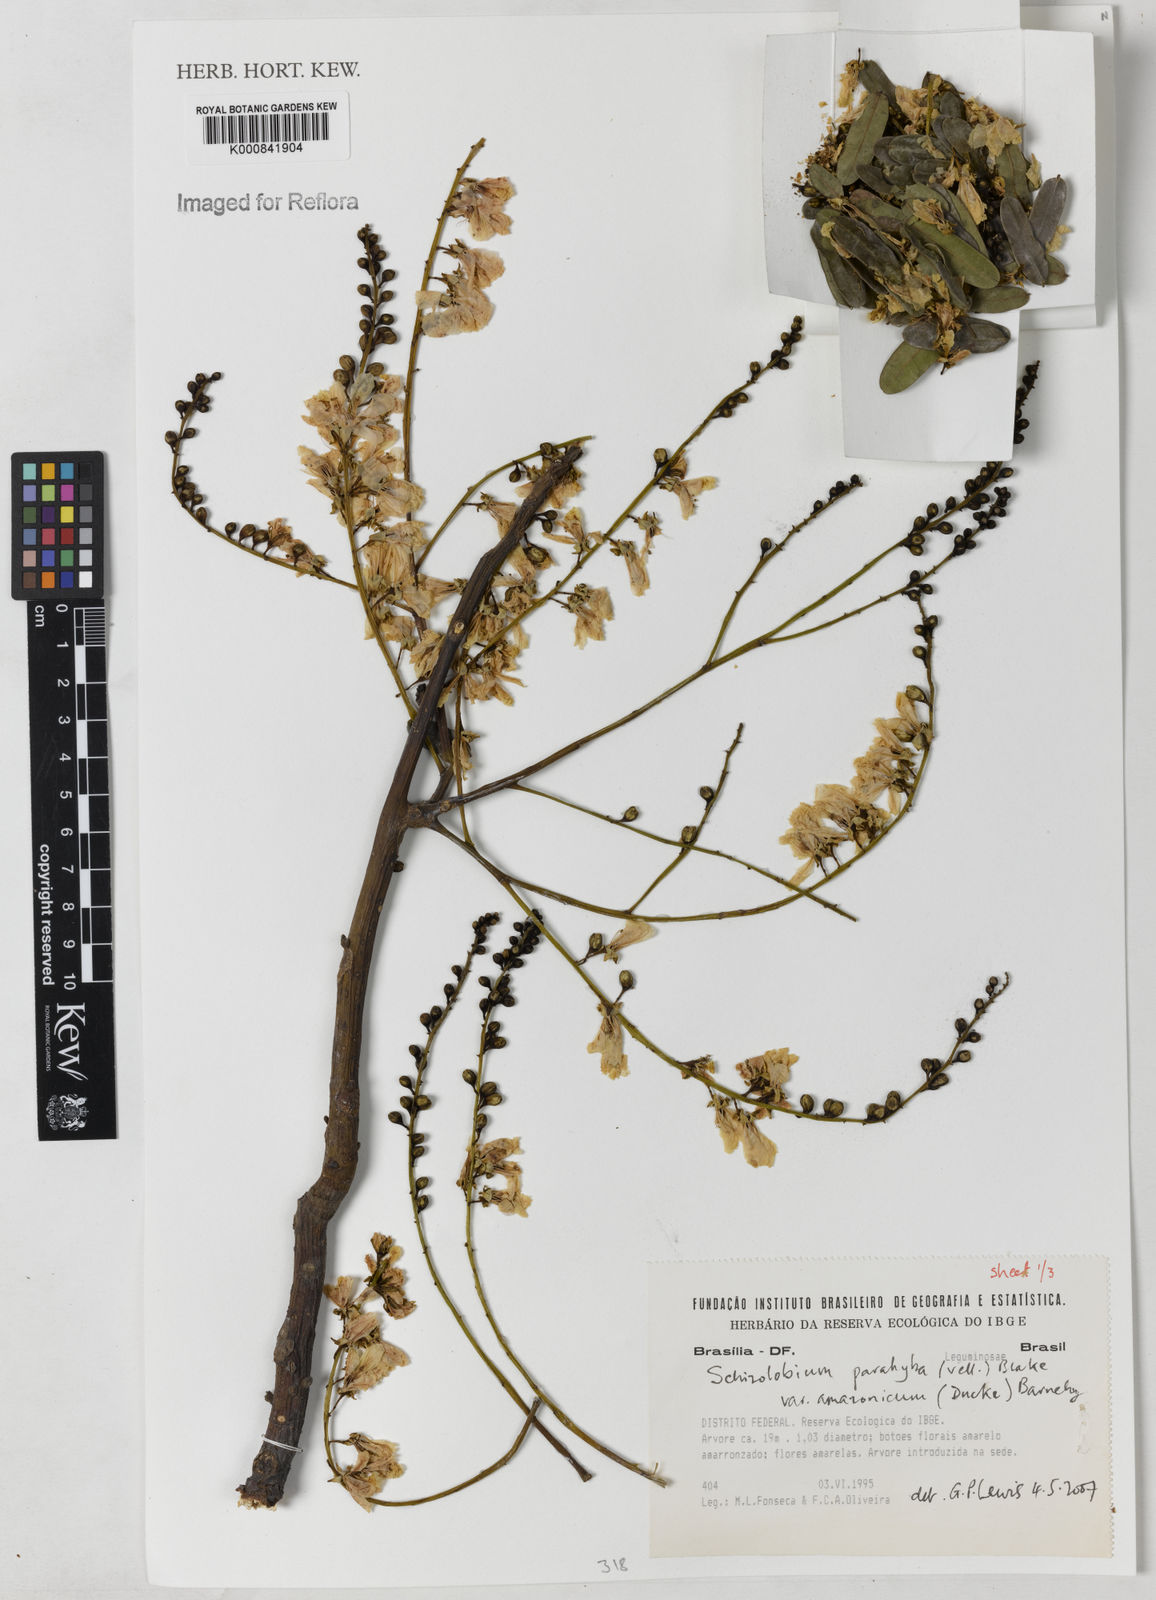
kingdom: Plantae
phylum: Tracheophyta
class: Magnoliopsida
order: Fabales
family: Fabaceae
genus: Schizolobium
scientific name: Schizolobium parahyba
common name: Brazilian firetree
